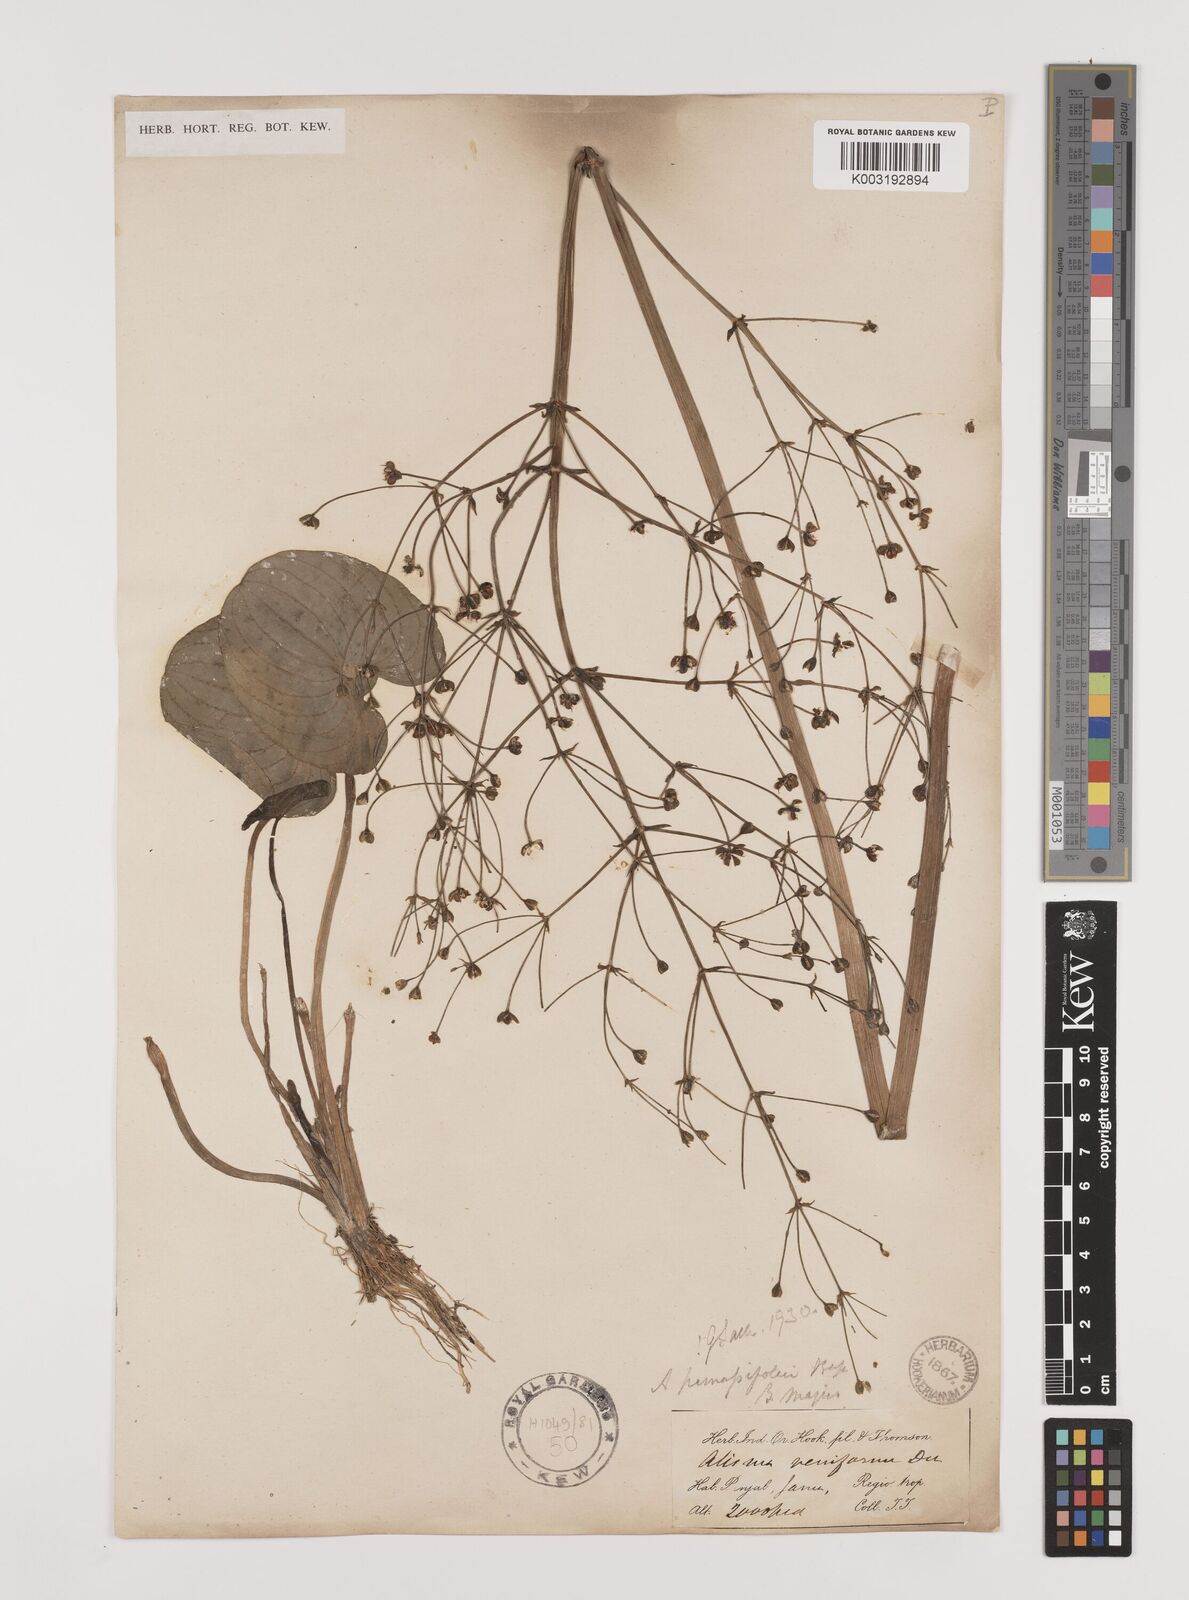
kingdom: Plantae
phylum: Tracheophyta
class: Liliopsida
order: Alismatales
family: Alismataceae
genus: Caldesia
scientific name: Caldesia parnassifolia
